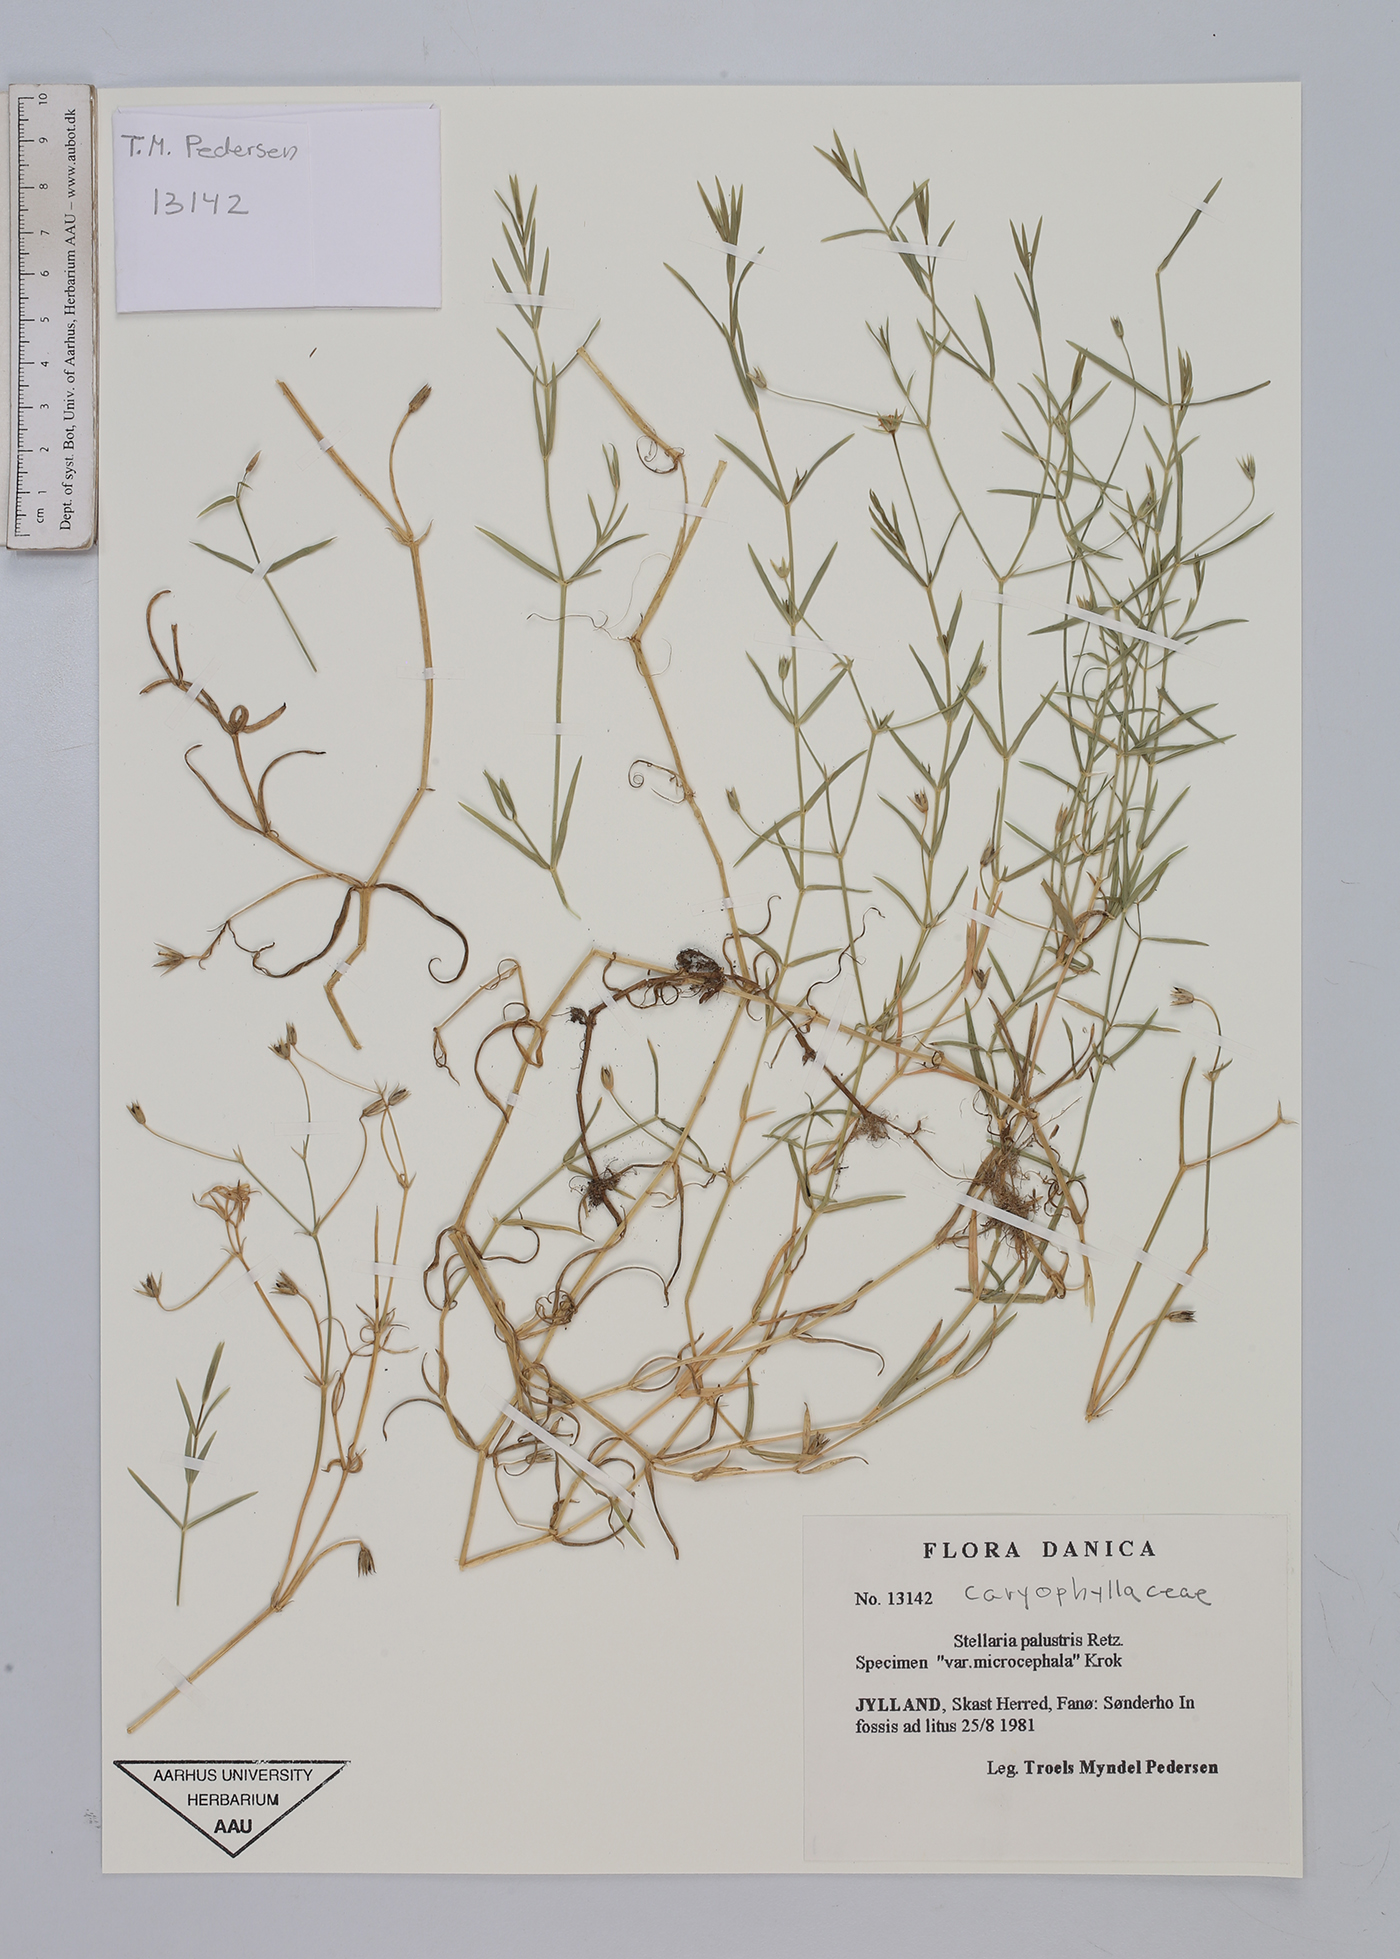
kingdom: Plantae
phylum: Tracheophyta
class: Magnoliopsida
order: Caryophyllales
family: Caryophyllaceae
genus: Stellaria
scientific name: Stellaria palustris
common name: Marsh stitchwort
